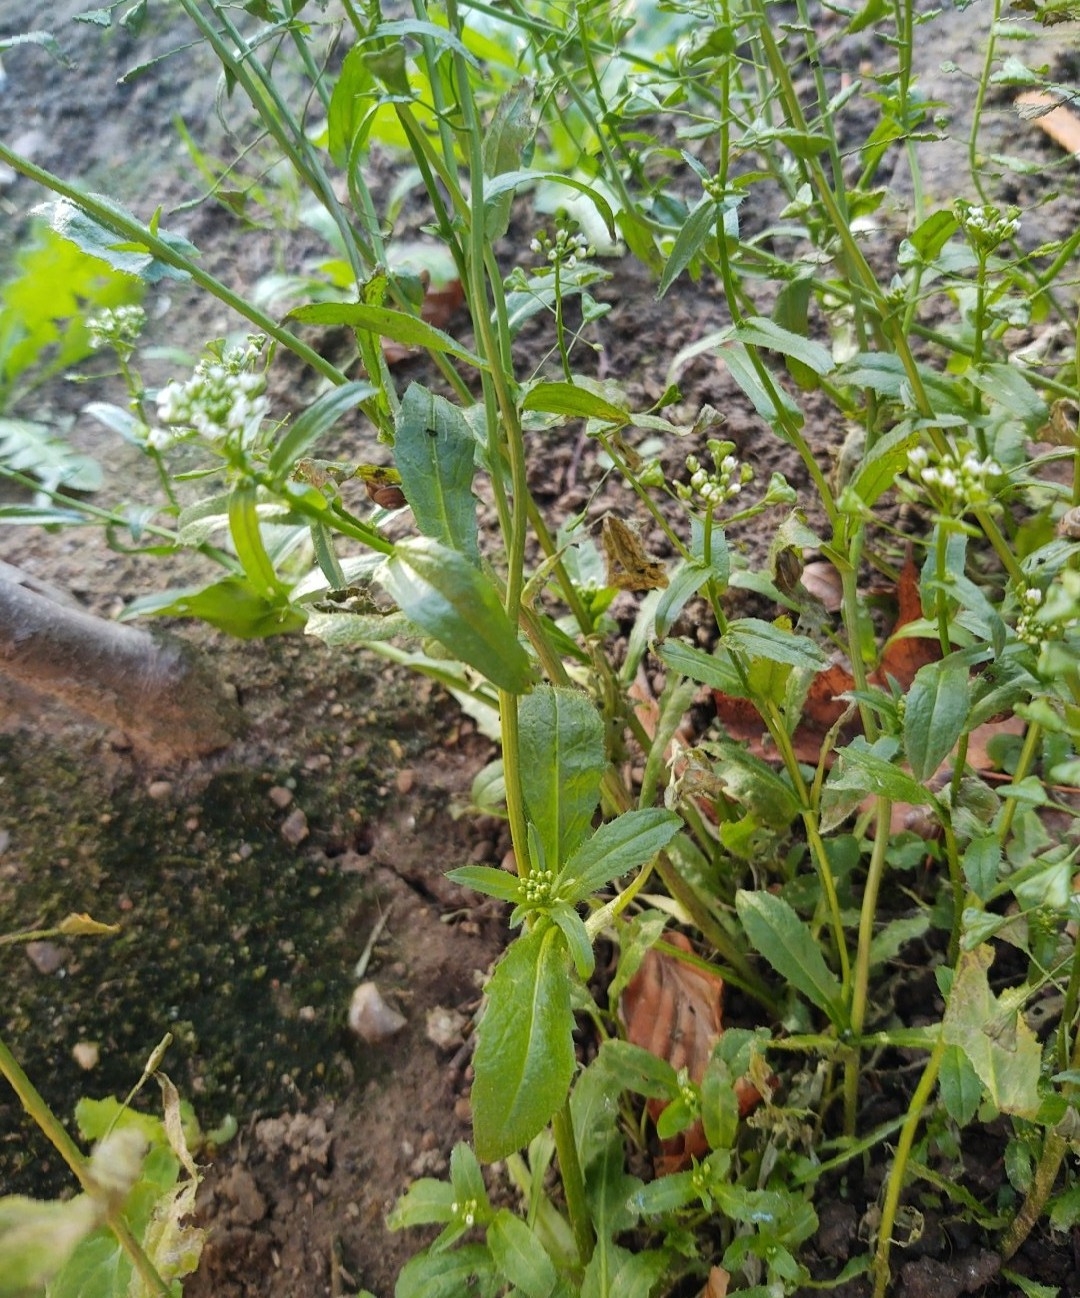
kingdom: Plantae
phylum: Tracheophyta
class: Magnoliopsida
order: Brassicales
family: Brassicaceae
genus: Capsella
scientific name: Capsella bursa-pastoris
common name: Hyrdetaske
